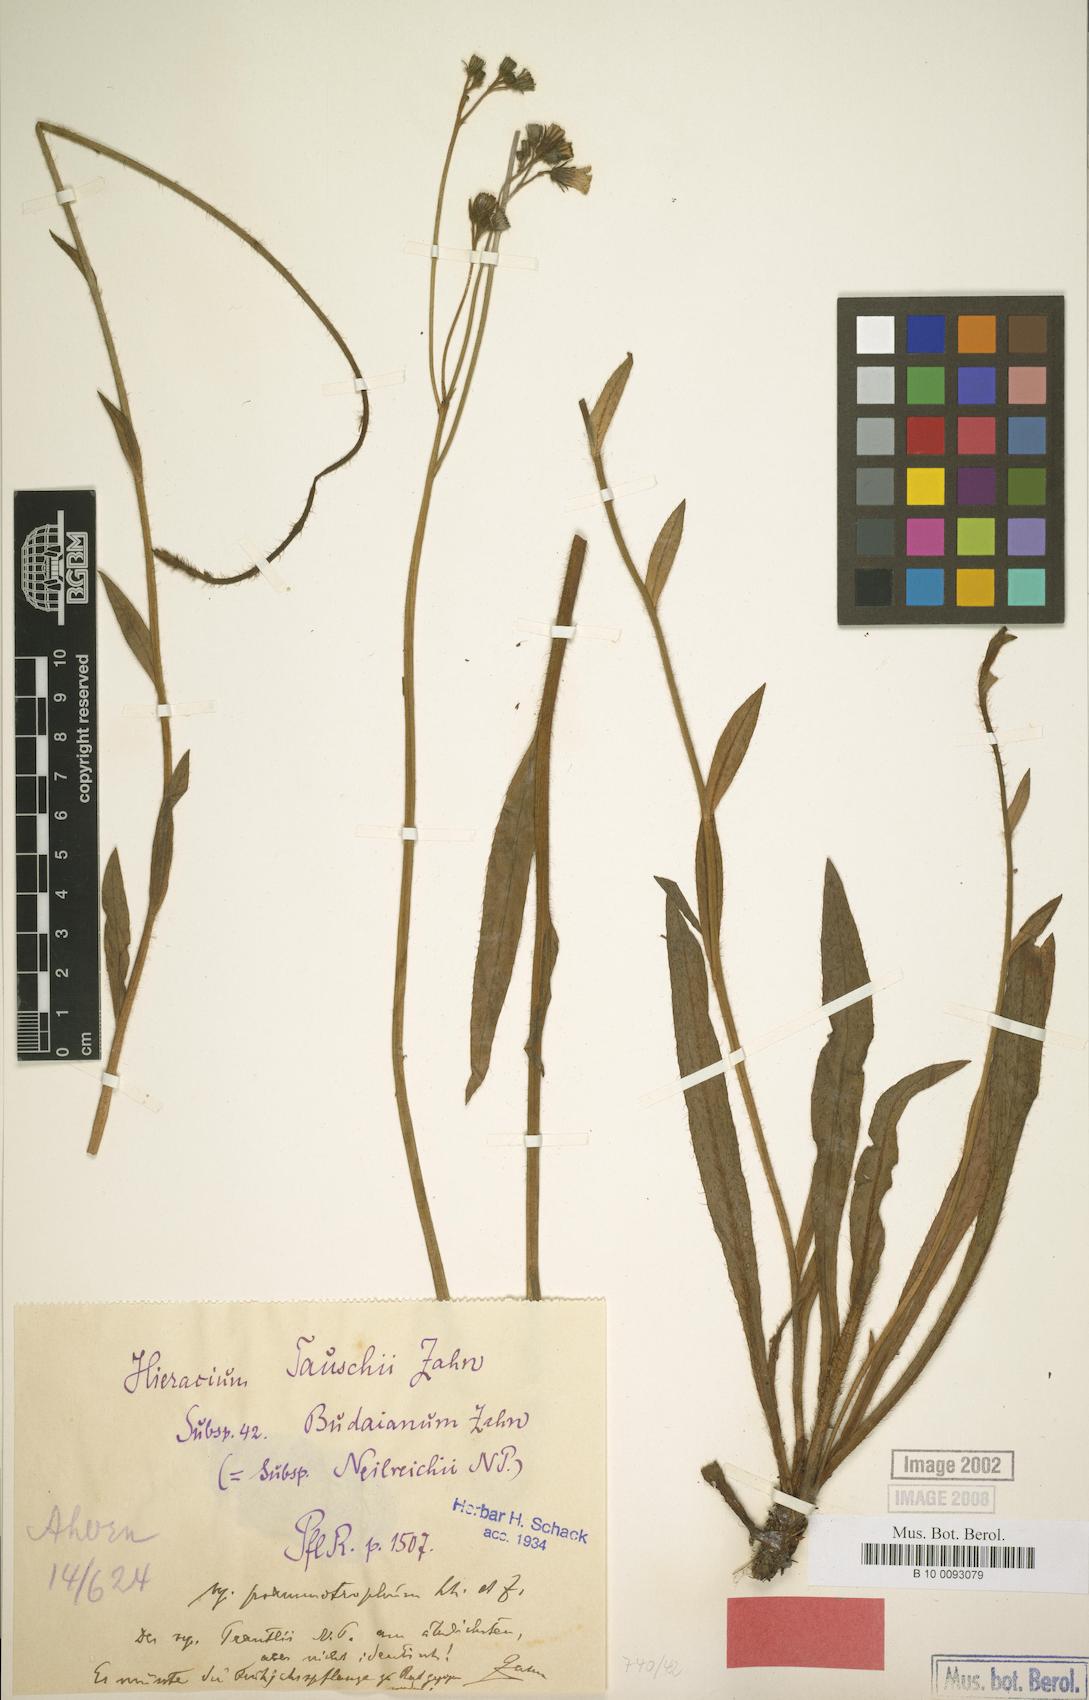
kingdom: Plantae
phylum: Tracheophyta
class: Magnoliopsida
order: Asterales
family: Asteraceae
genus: Pilosella
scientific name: Pilosella densiflora
